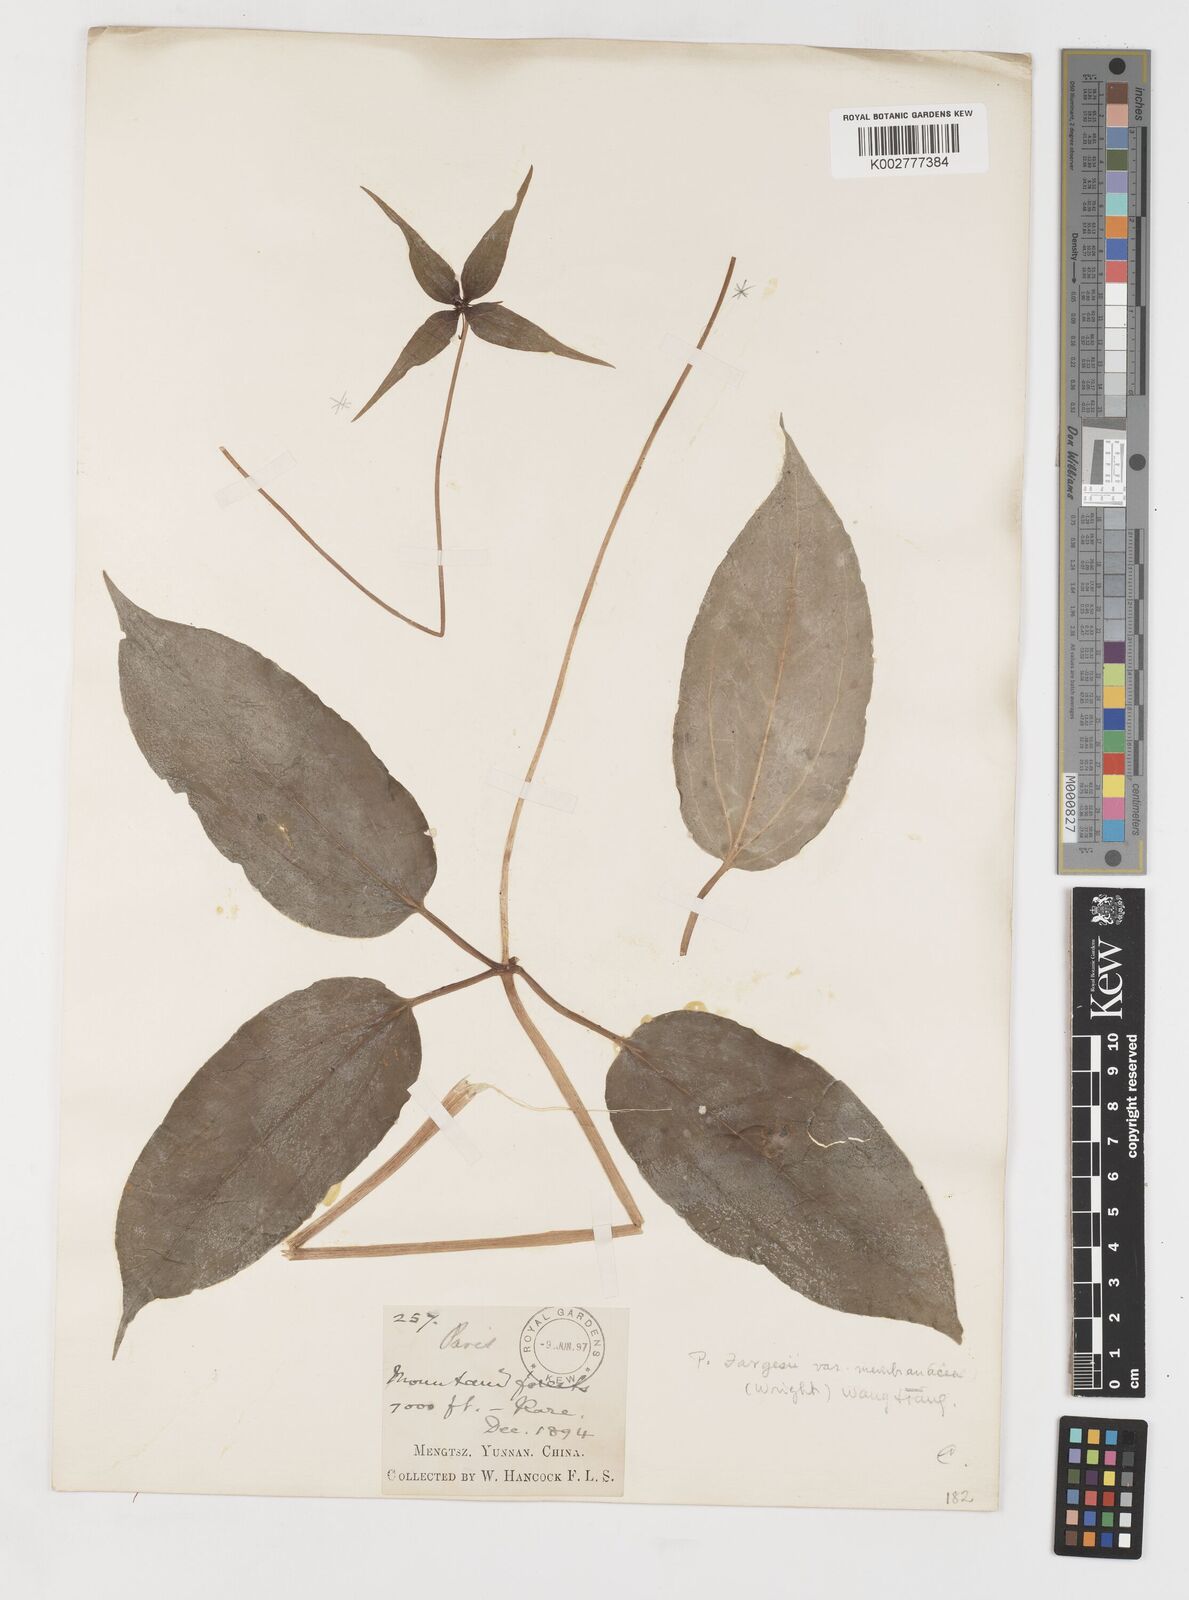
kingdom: Plantae
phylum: Tracheophyta
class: Liliopsida
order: Liliales
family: Melanthiaceae
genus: Paris
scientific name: Paris fargesii
